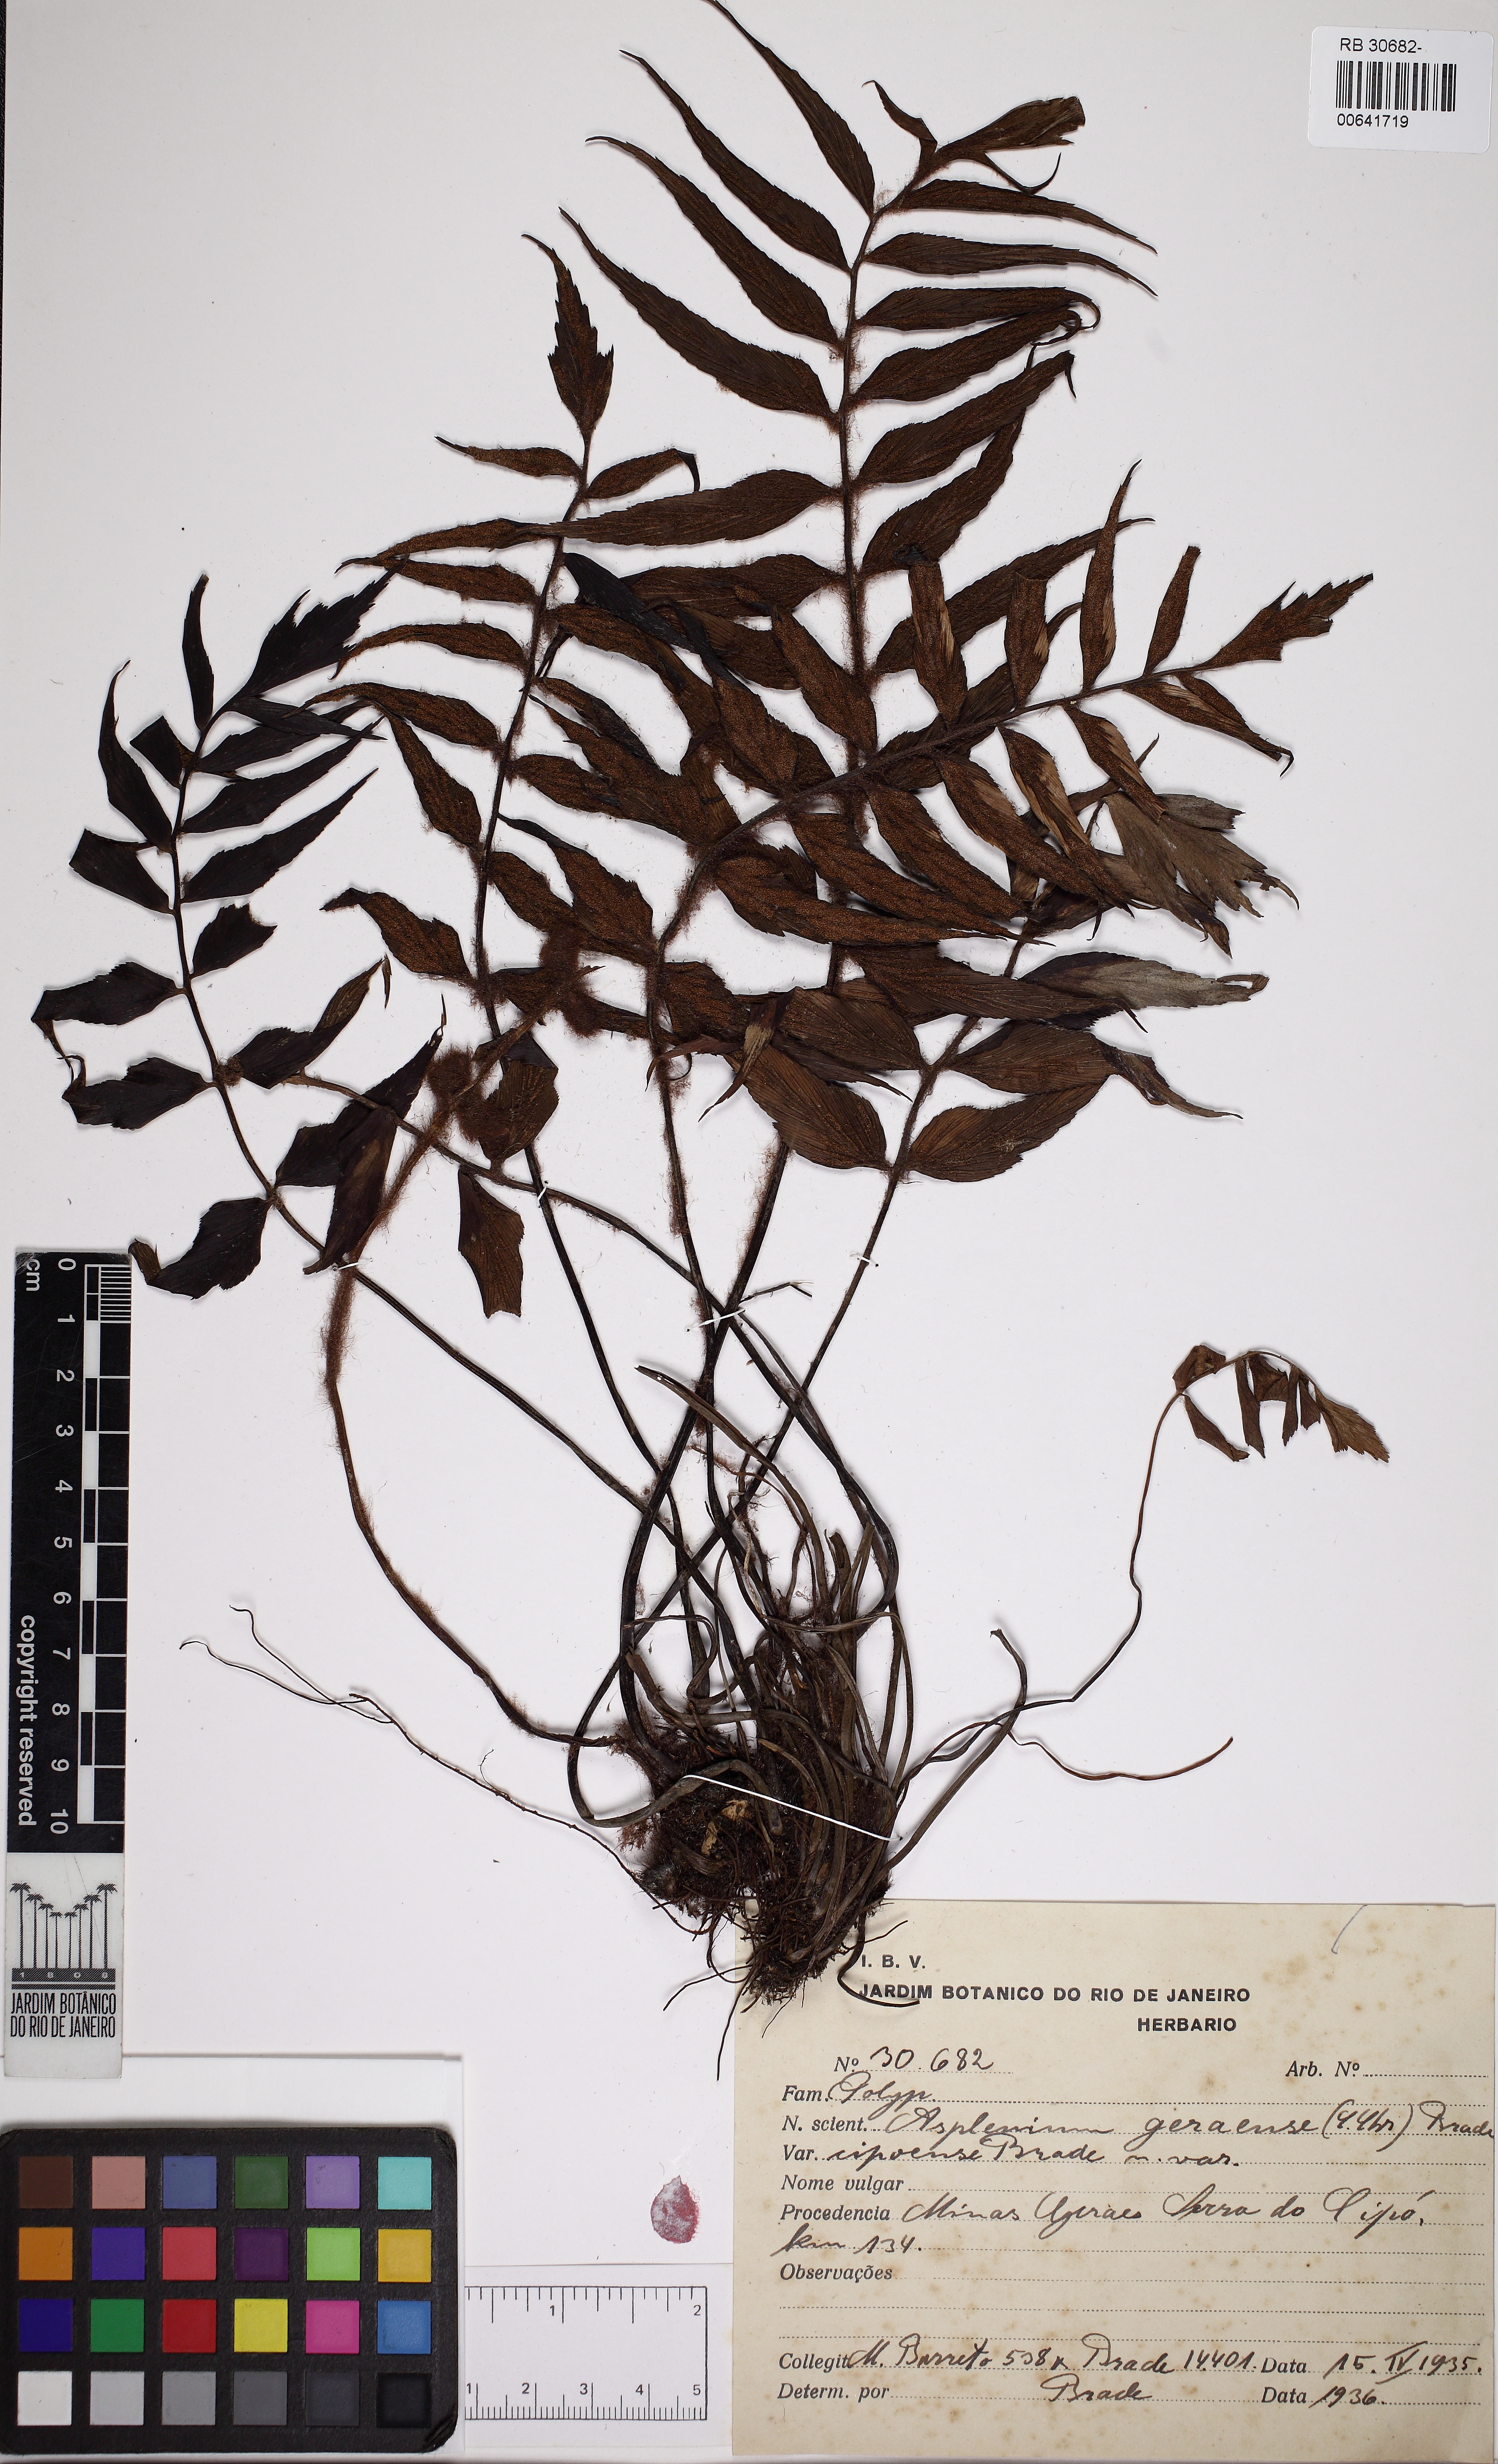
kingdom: Plantae
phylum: Tracheophyta
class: Polypodiopsida
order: Polypodiales
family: Aspleniaceae
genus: Asplenium
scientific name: Asplenium geraense
